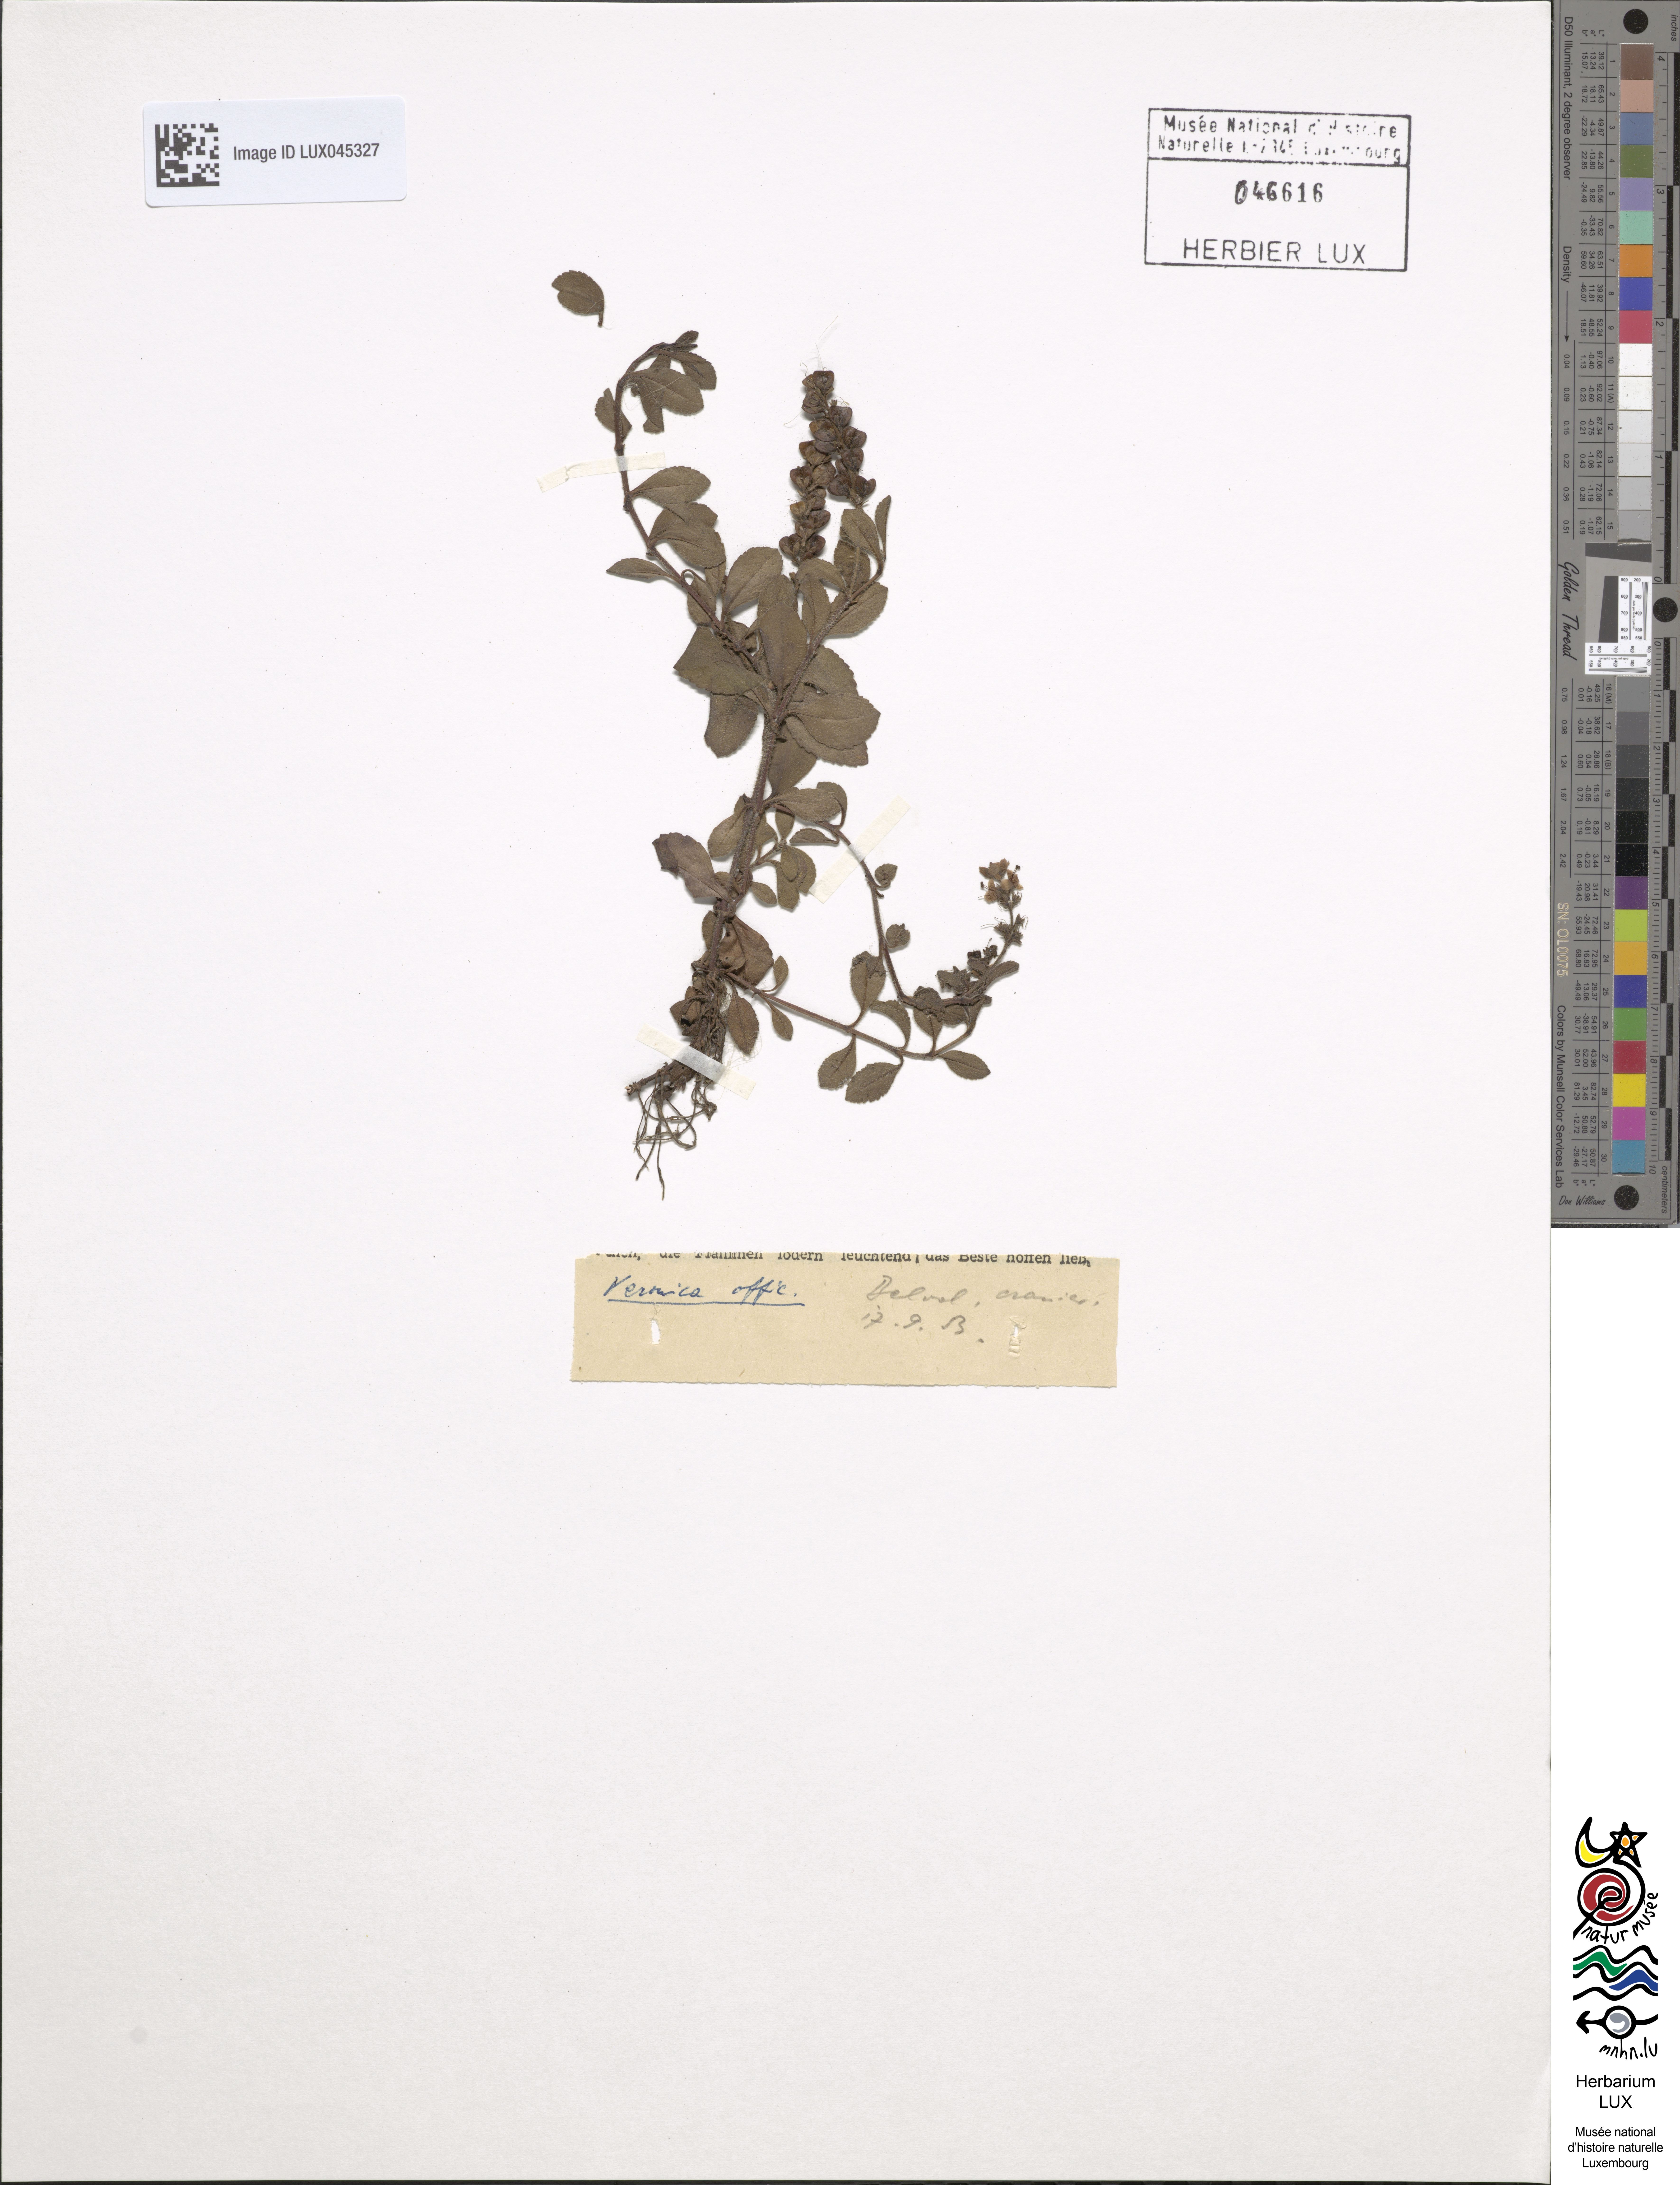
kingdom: Plantae
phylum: Tracheophyta
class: Magnoliopsida
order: Lamiales
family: Plantaginaceae
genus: Veronica
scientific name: Veronica officinalis
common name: Common speedwell
